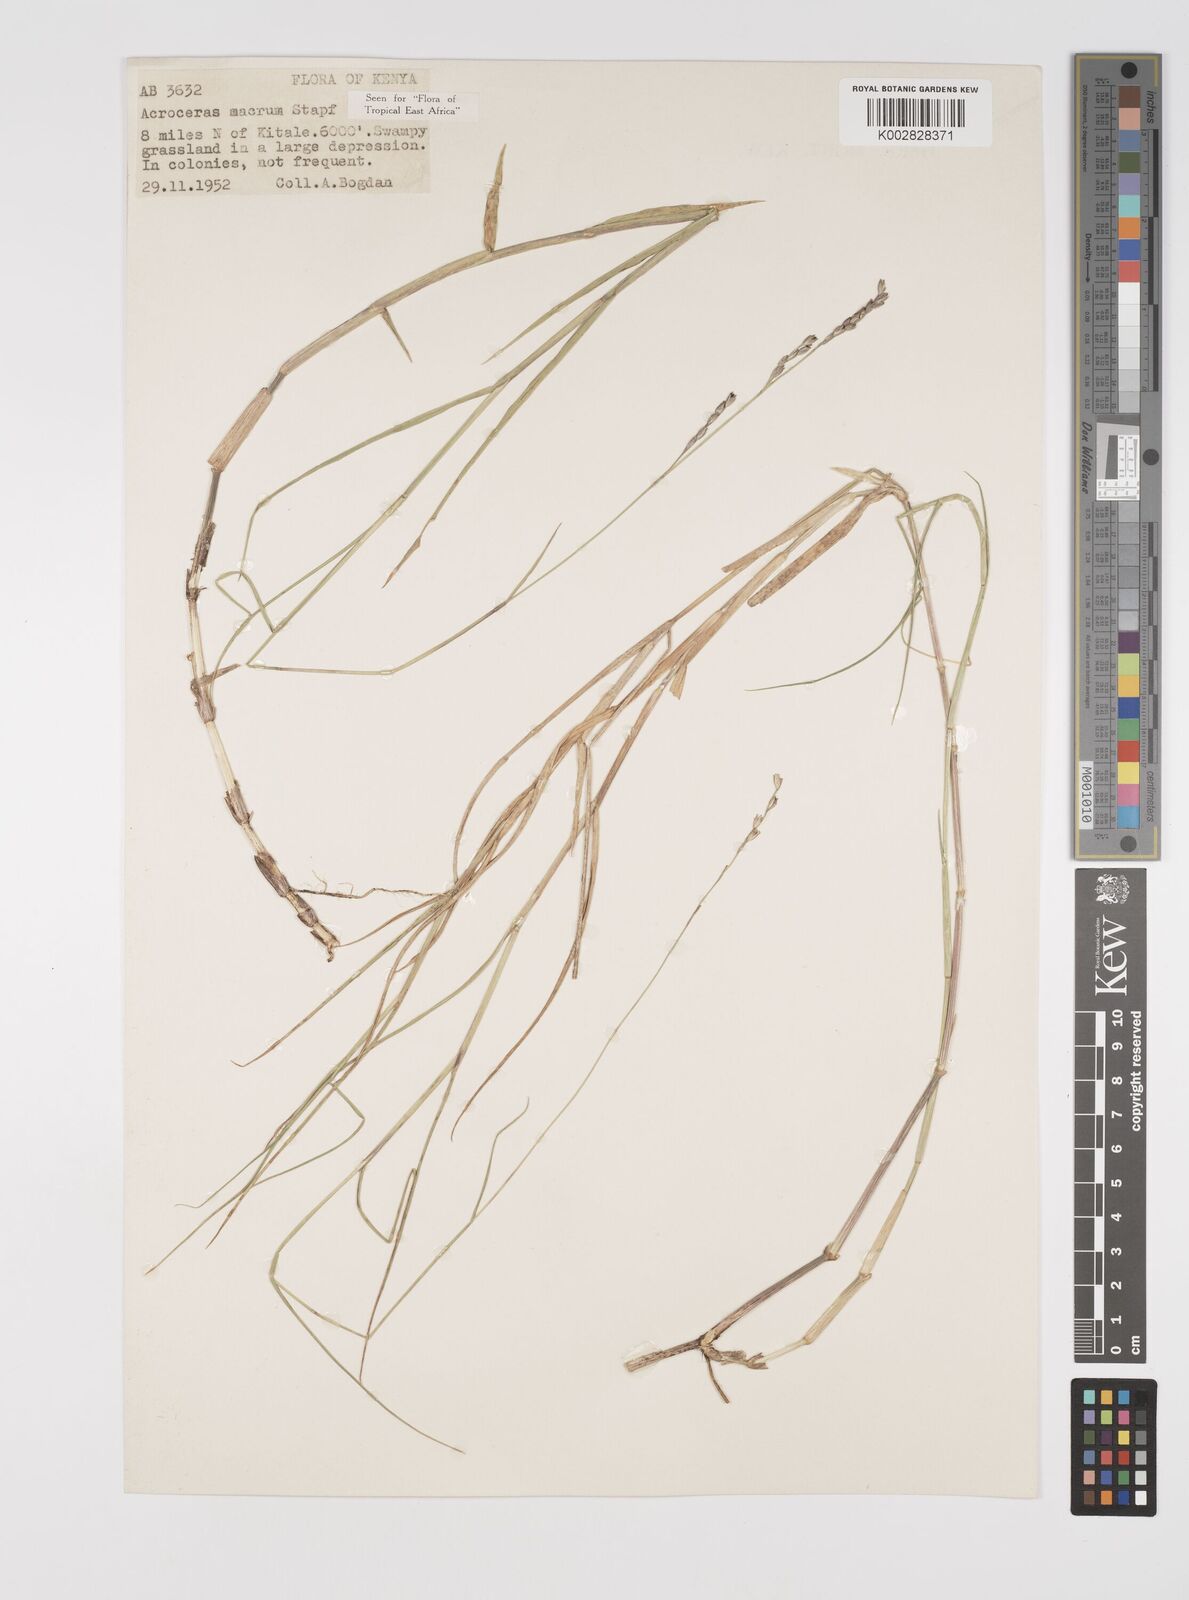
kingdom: Plantae
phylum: Tracheophyta
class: Liliopsida
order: Poales
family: Poaceae
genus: Acroceras
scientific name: Acroceras macrum
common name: Nyl grass
